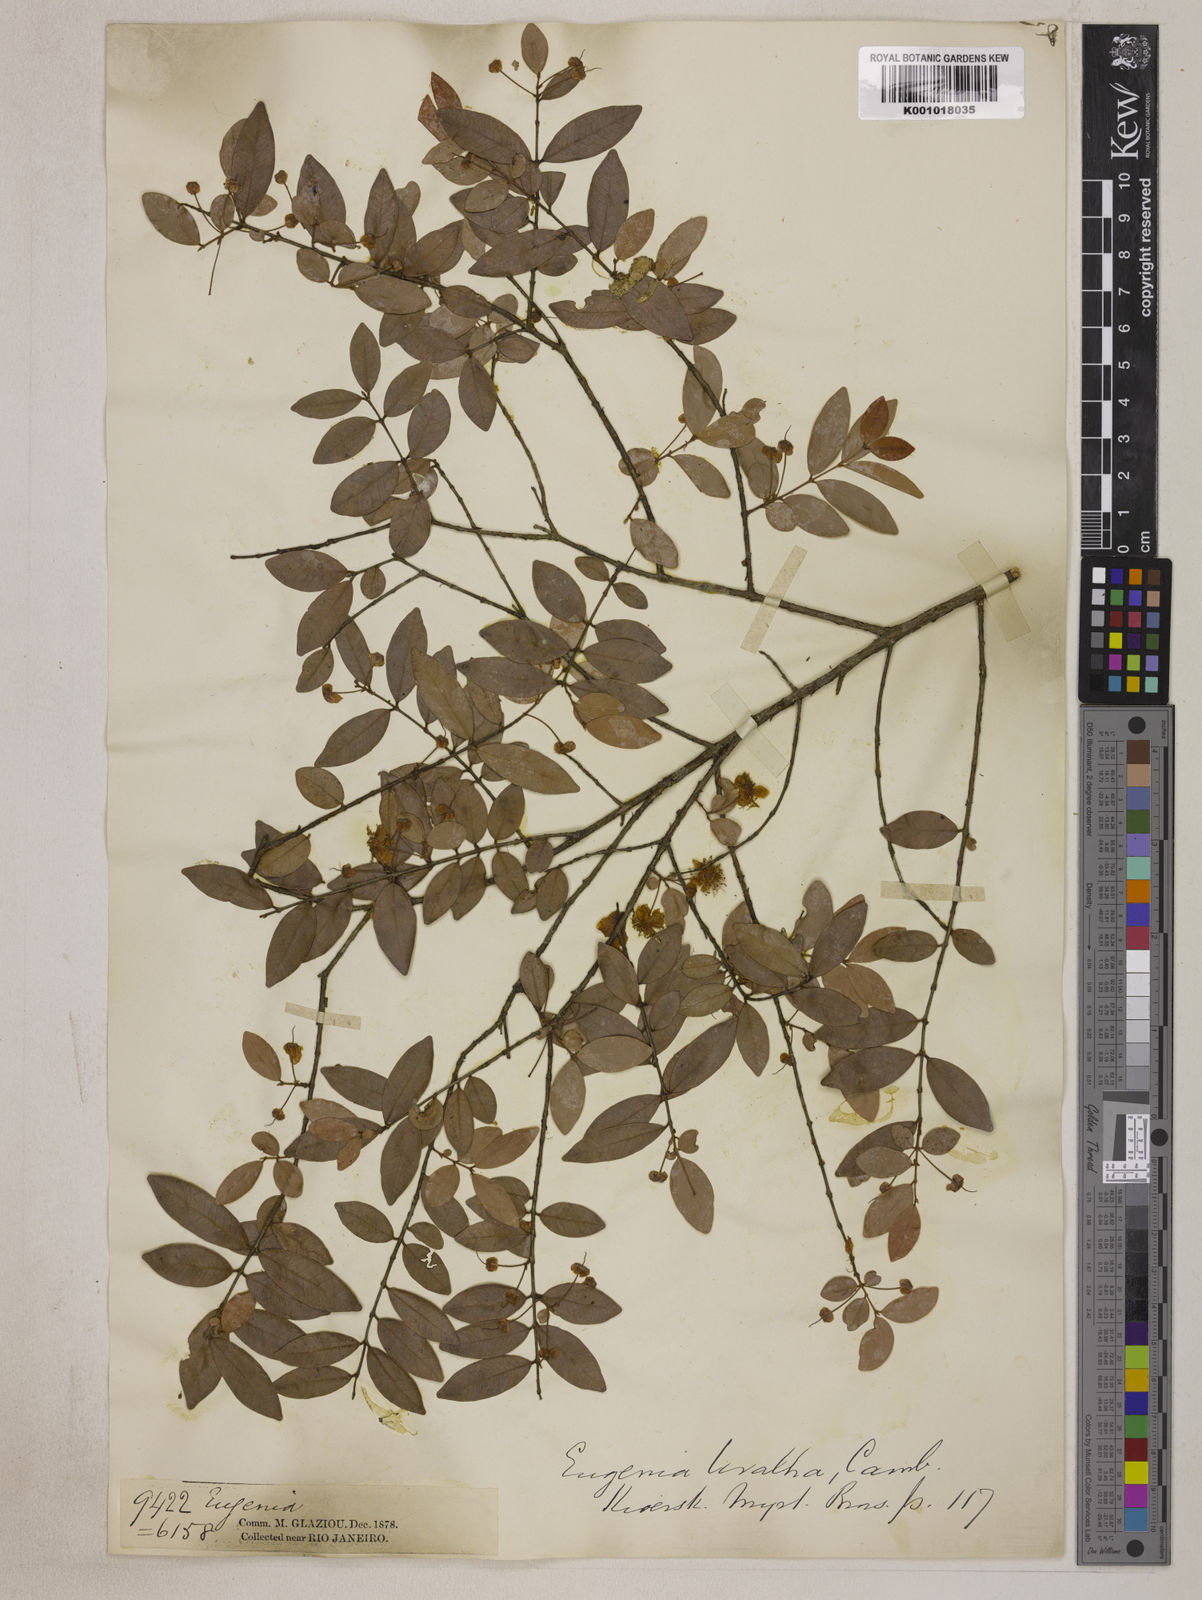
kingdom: Plantae
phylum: Tracheophyta
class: Magnoliopsida
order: Myrtales
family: Myrtaceae
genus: Eugenia
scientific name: Eugenia pyriformis
